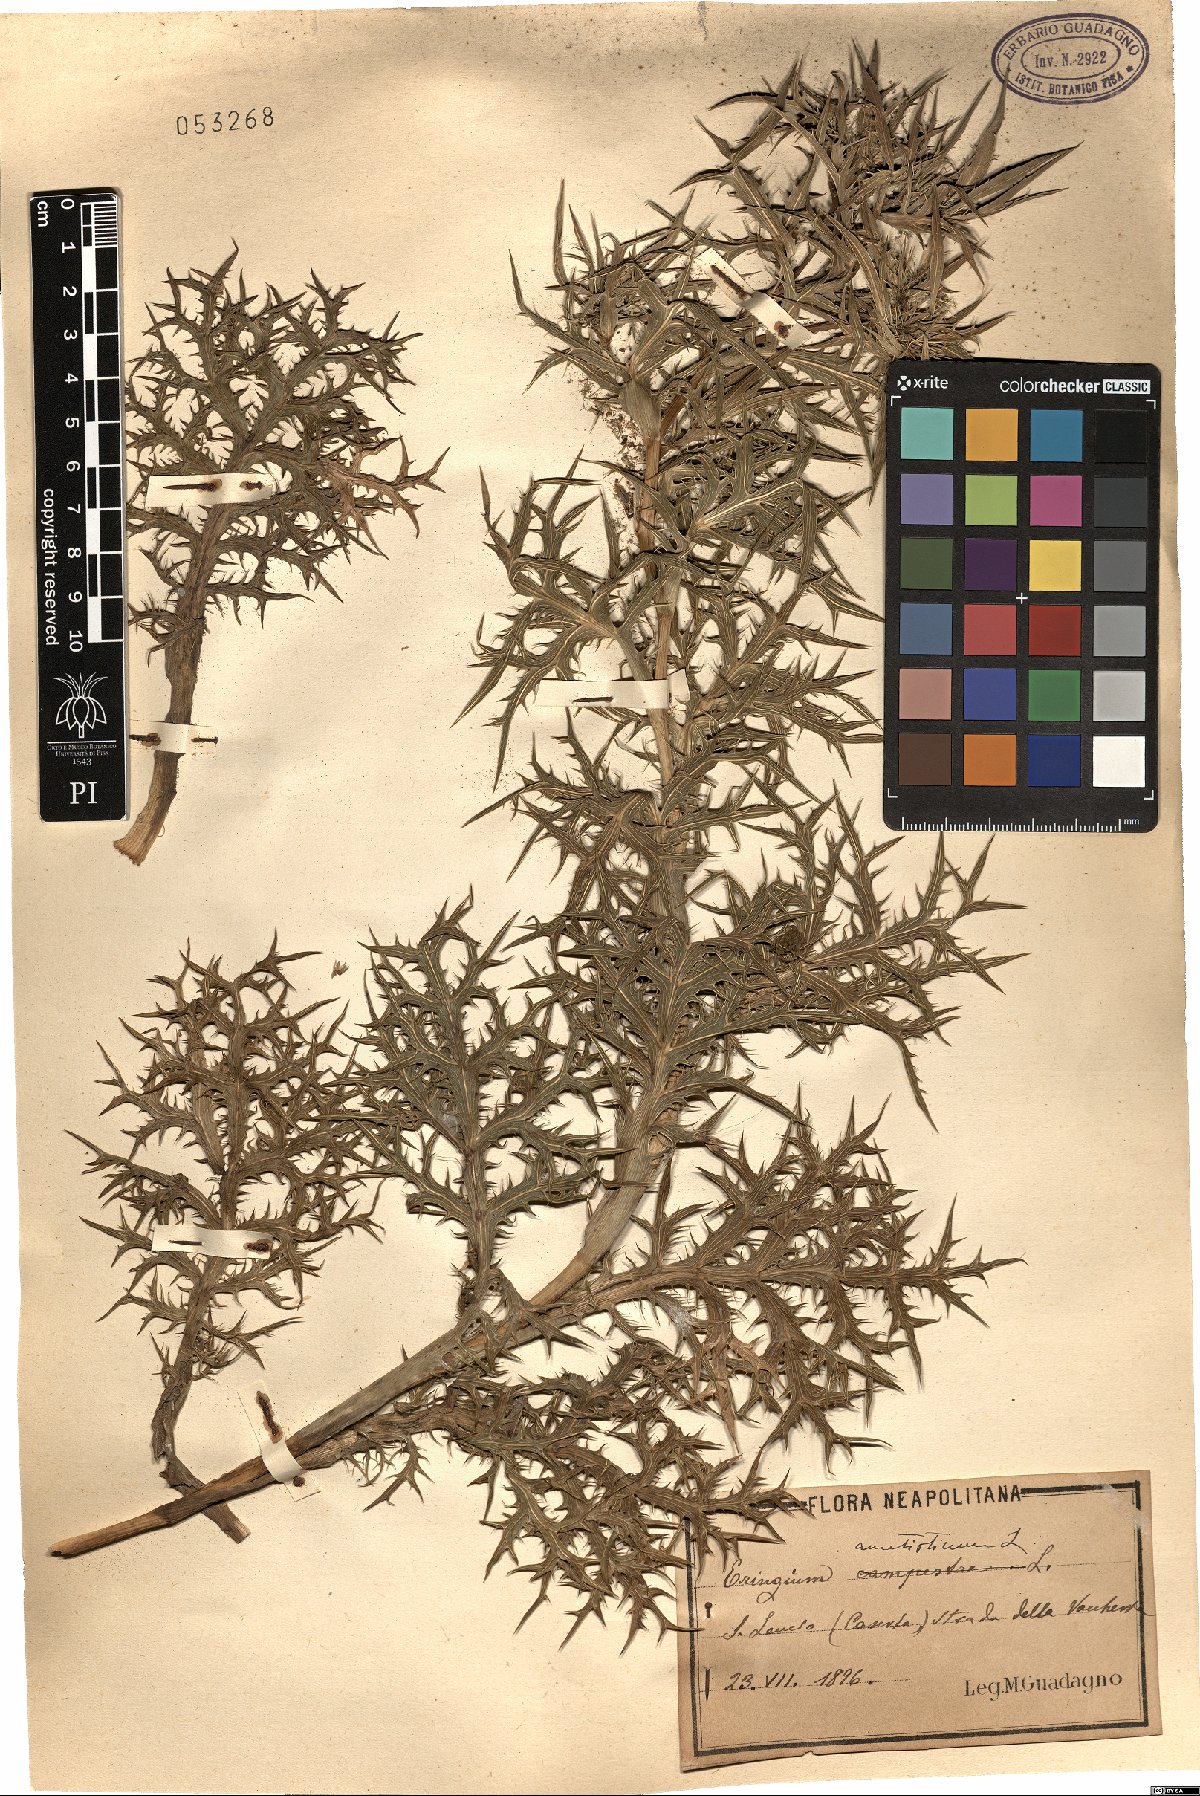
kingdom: Plantae
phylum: Tracheophyta
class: Magnoliopsida
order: Apiales
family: Apiaceae
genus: Eryngium
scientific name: Eryngium amethystinum
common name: Amethyst eryngo
